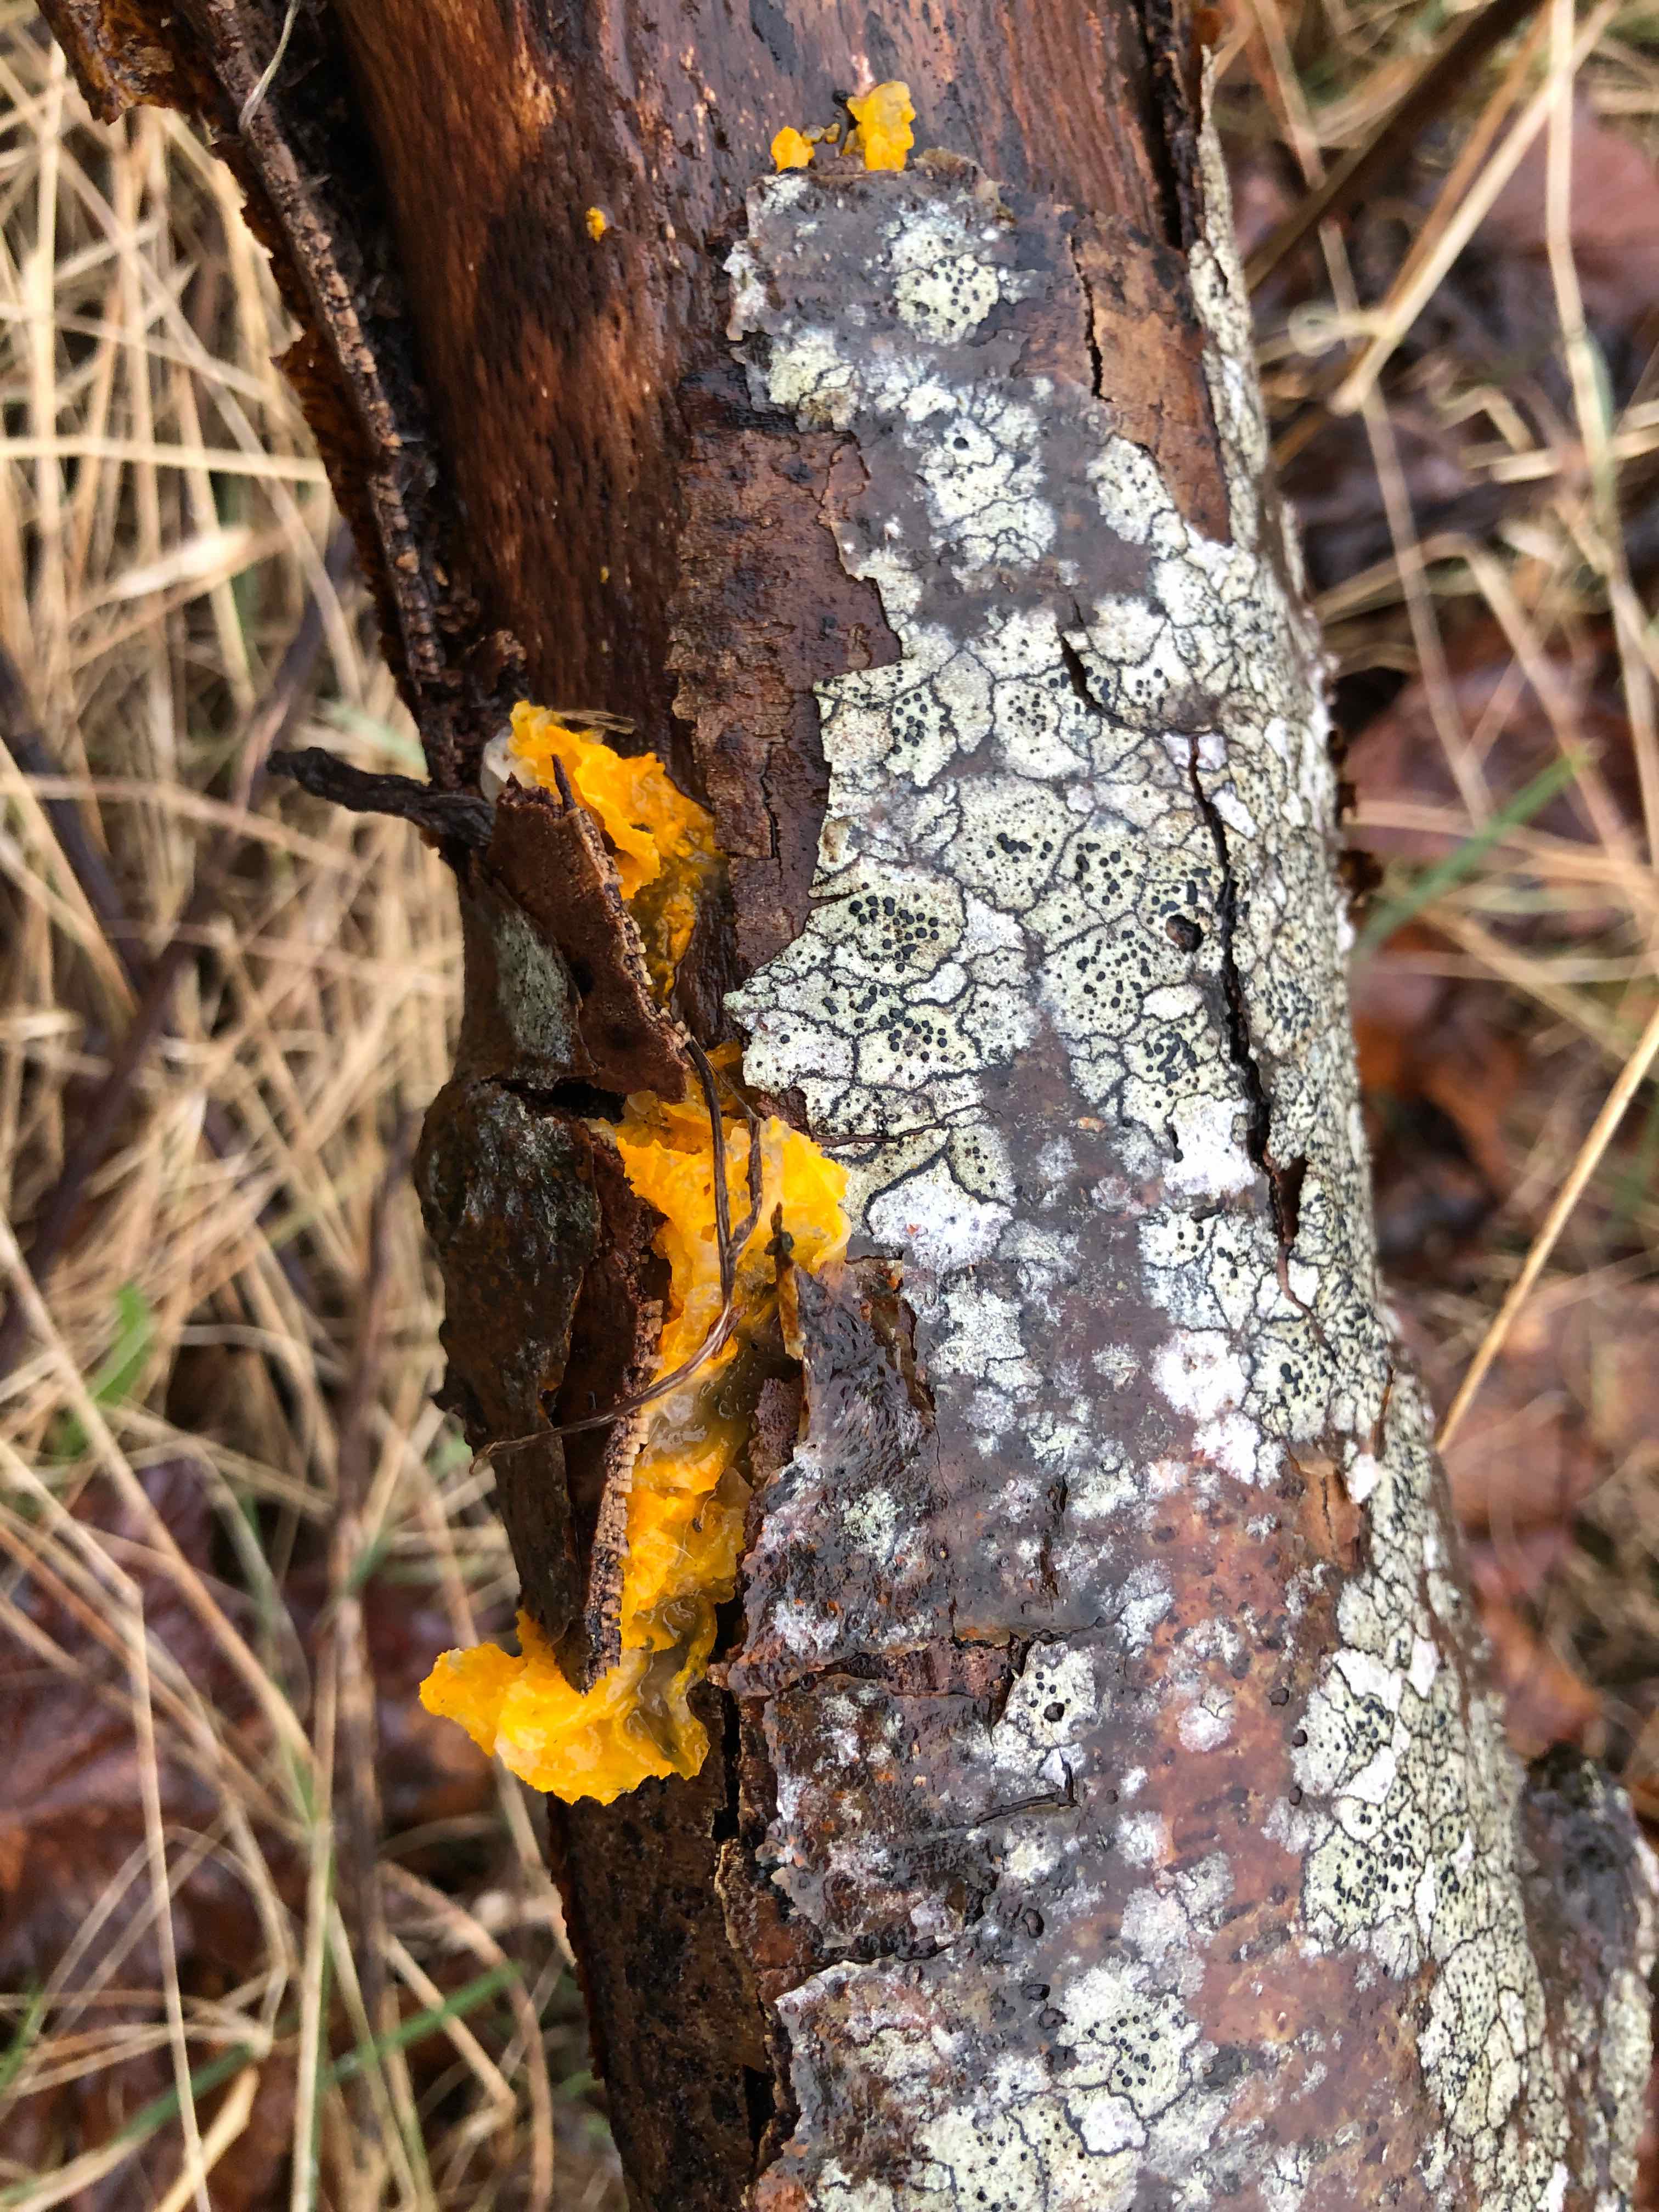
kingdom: Fungi
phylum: Basidiomycota
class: Tremellomycetes
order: Tremellales
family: Tremellaceae
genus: Tremella
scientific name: Tremella mesenterica
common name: gul bævresvamp
